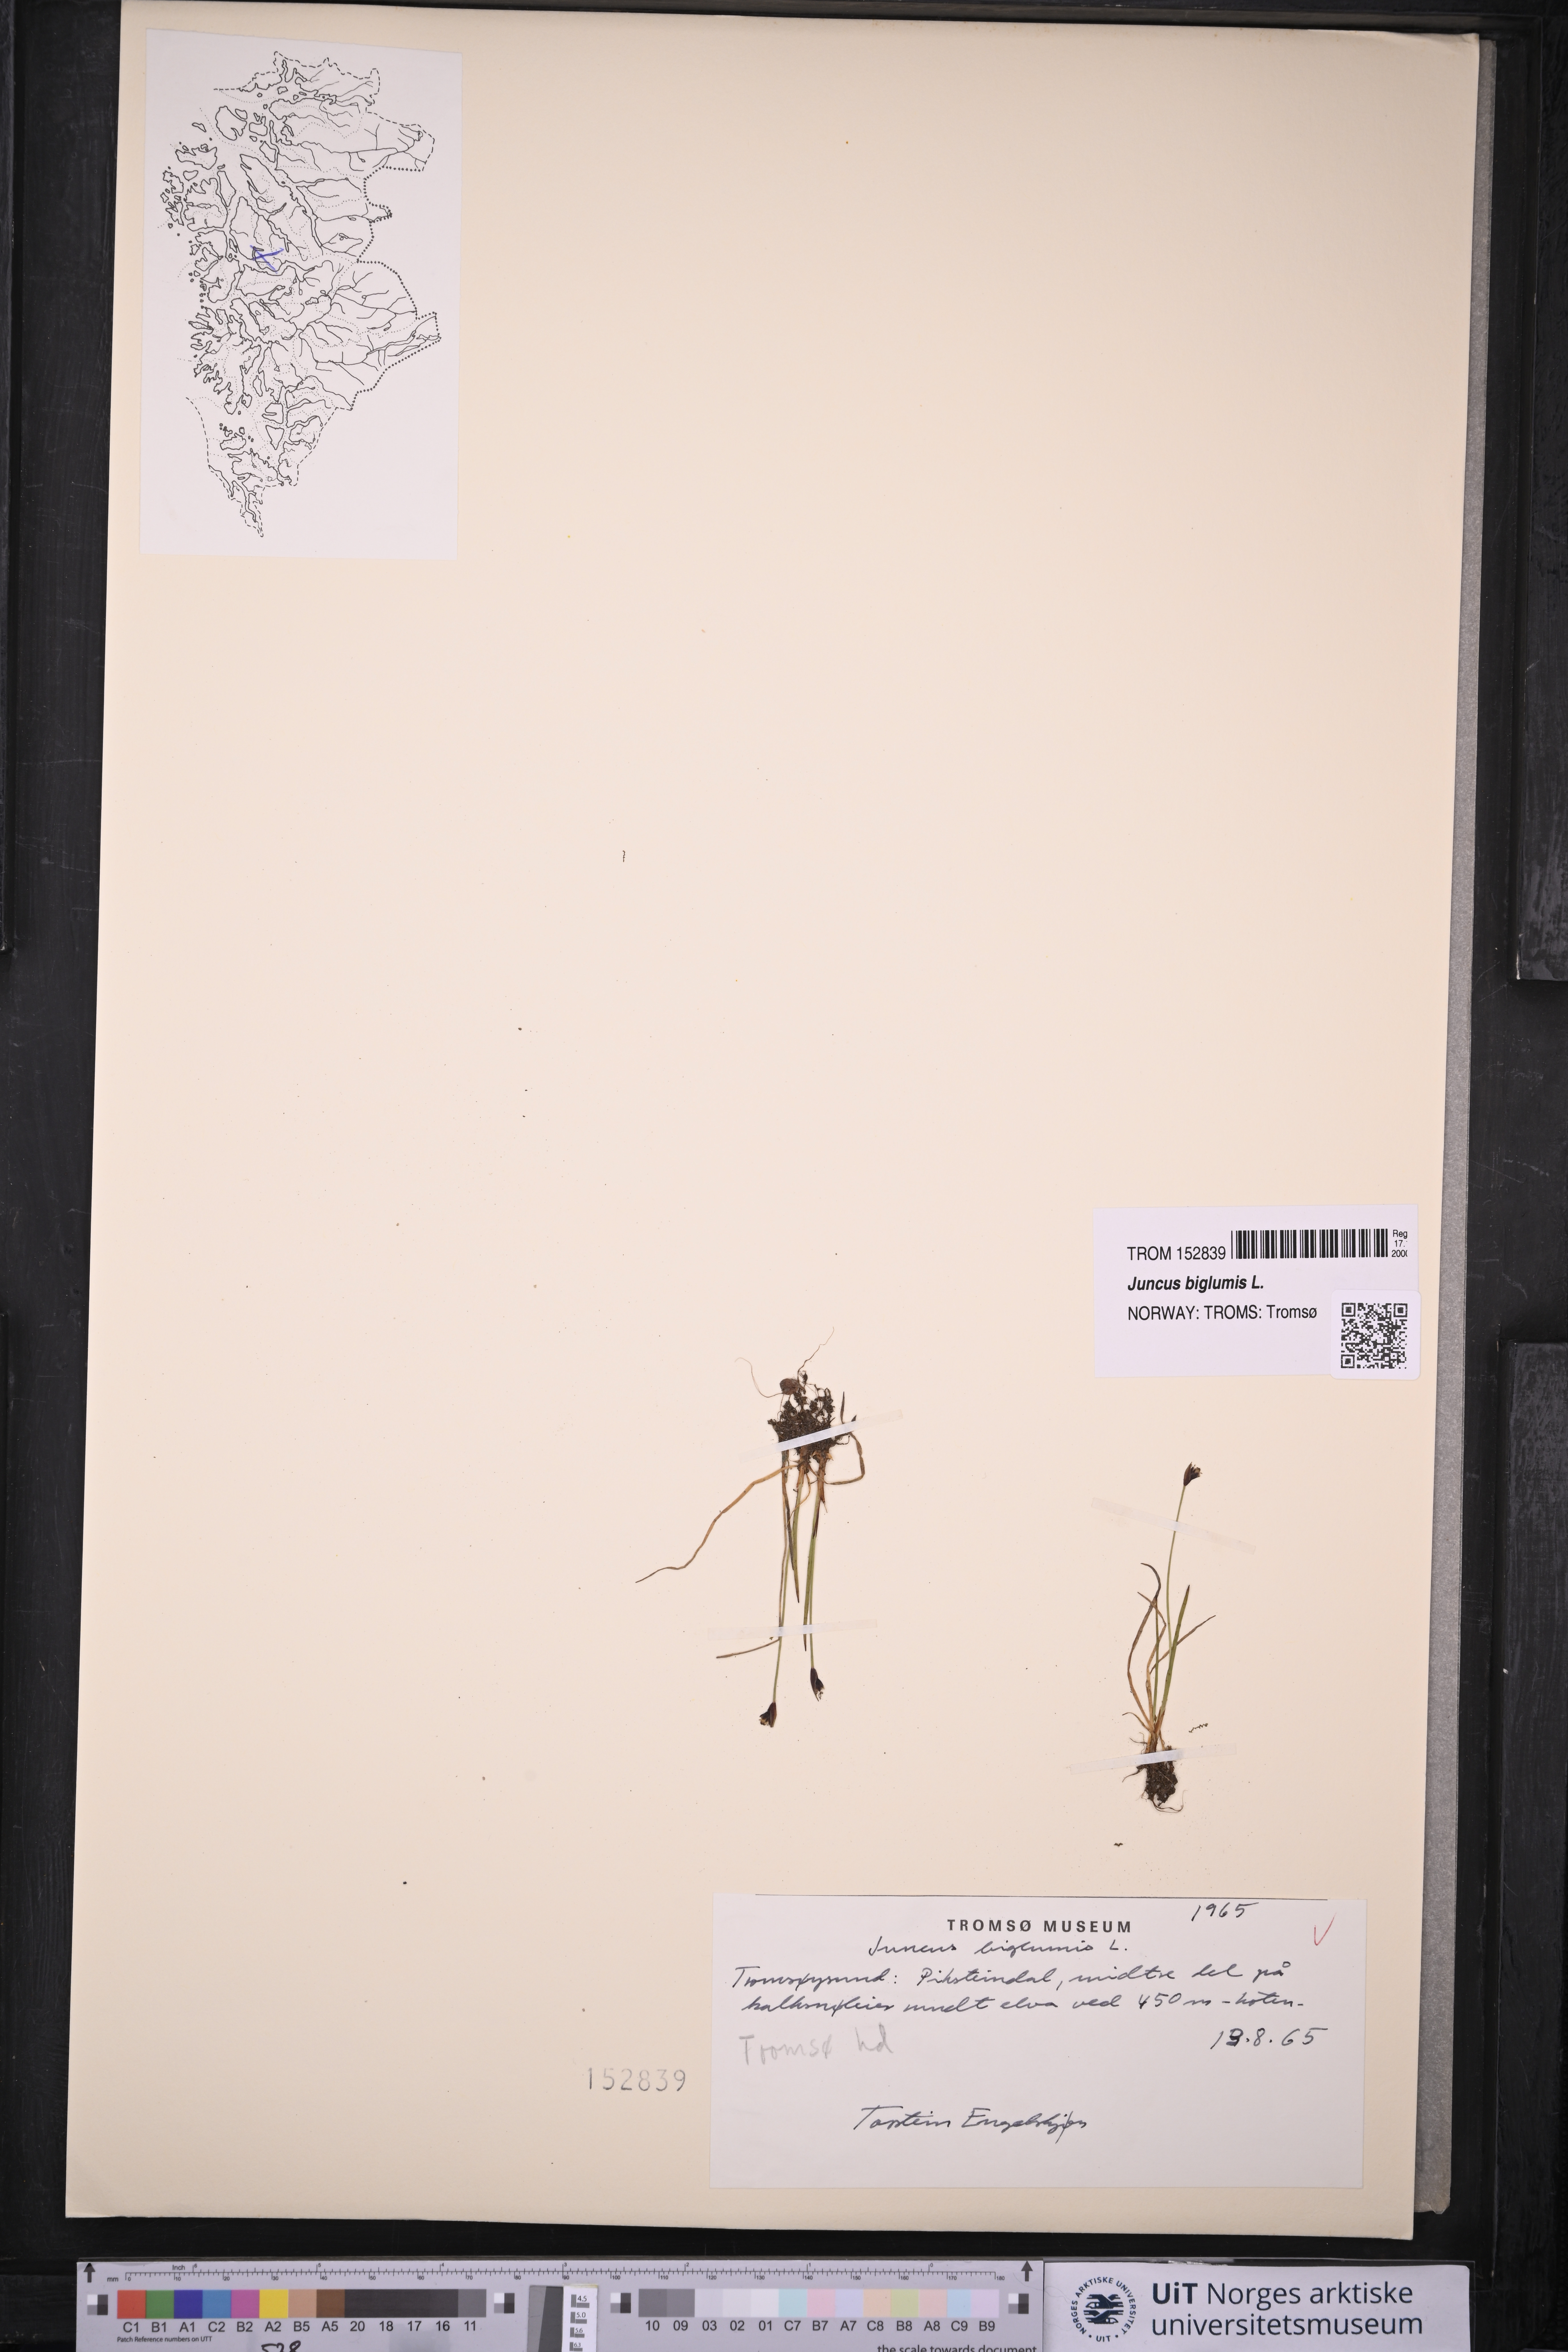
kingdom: Plantae
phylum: Tracheophyta
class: Liliopsida
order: Poales
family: Juncaceae
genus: Juncus
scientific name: Juncus biglumis
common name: Two-flowered rush
